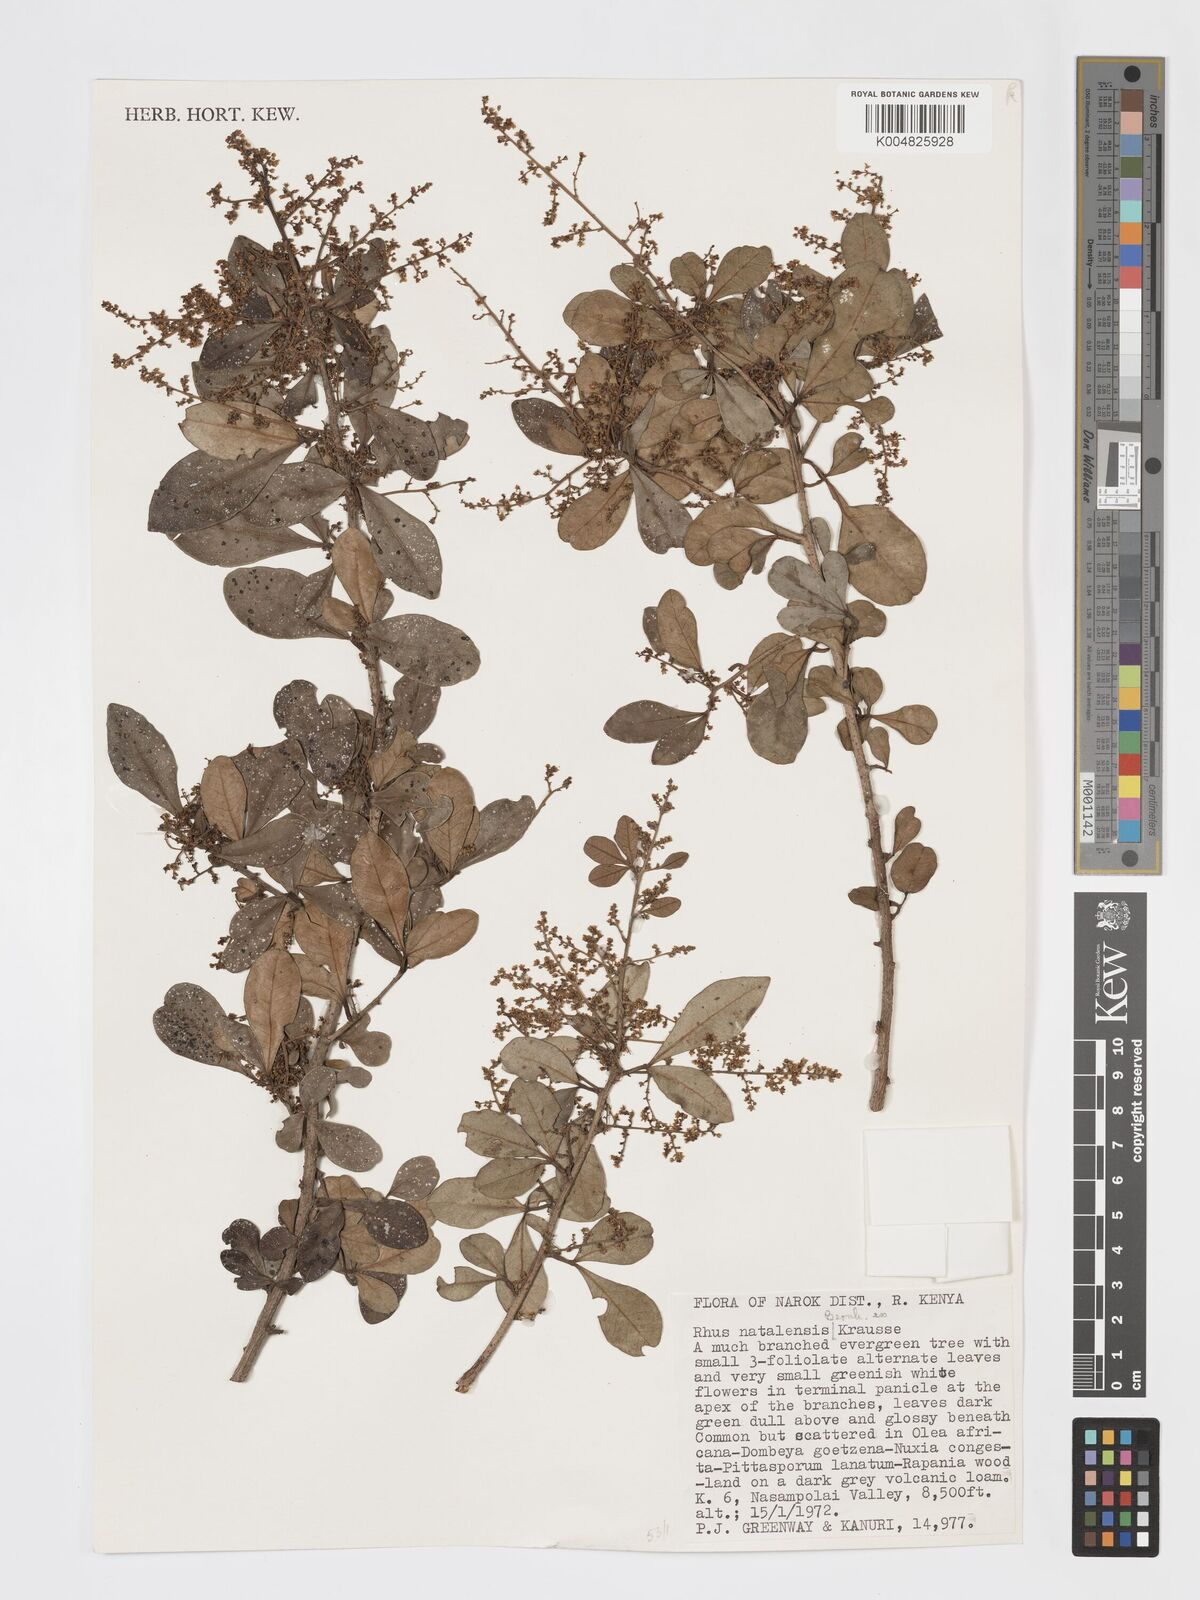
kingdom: Plantae
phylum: Tracheophyta
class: Magnoliopsida
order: Sapindales
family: Anacardiaceae
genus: Searsia
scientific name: Searsia natalensis
